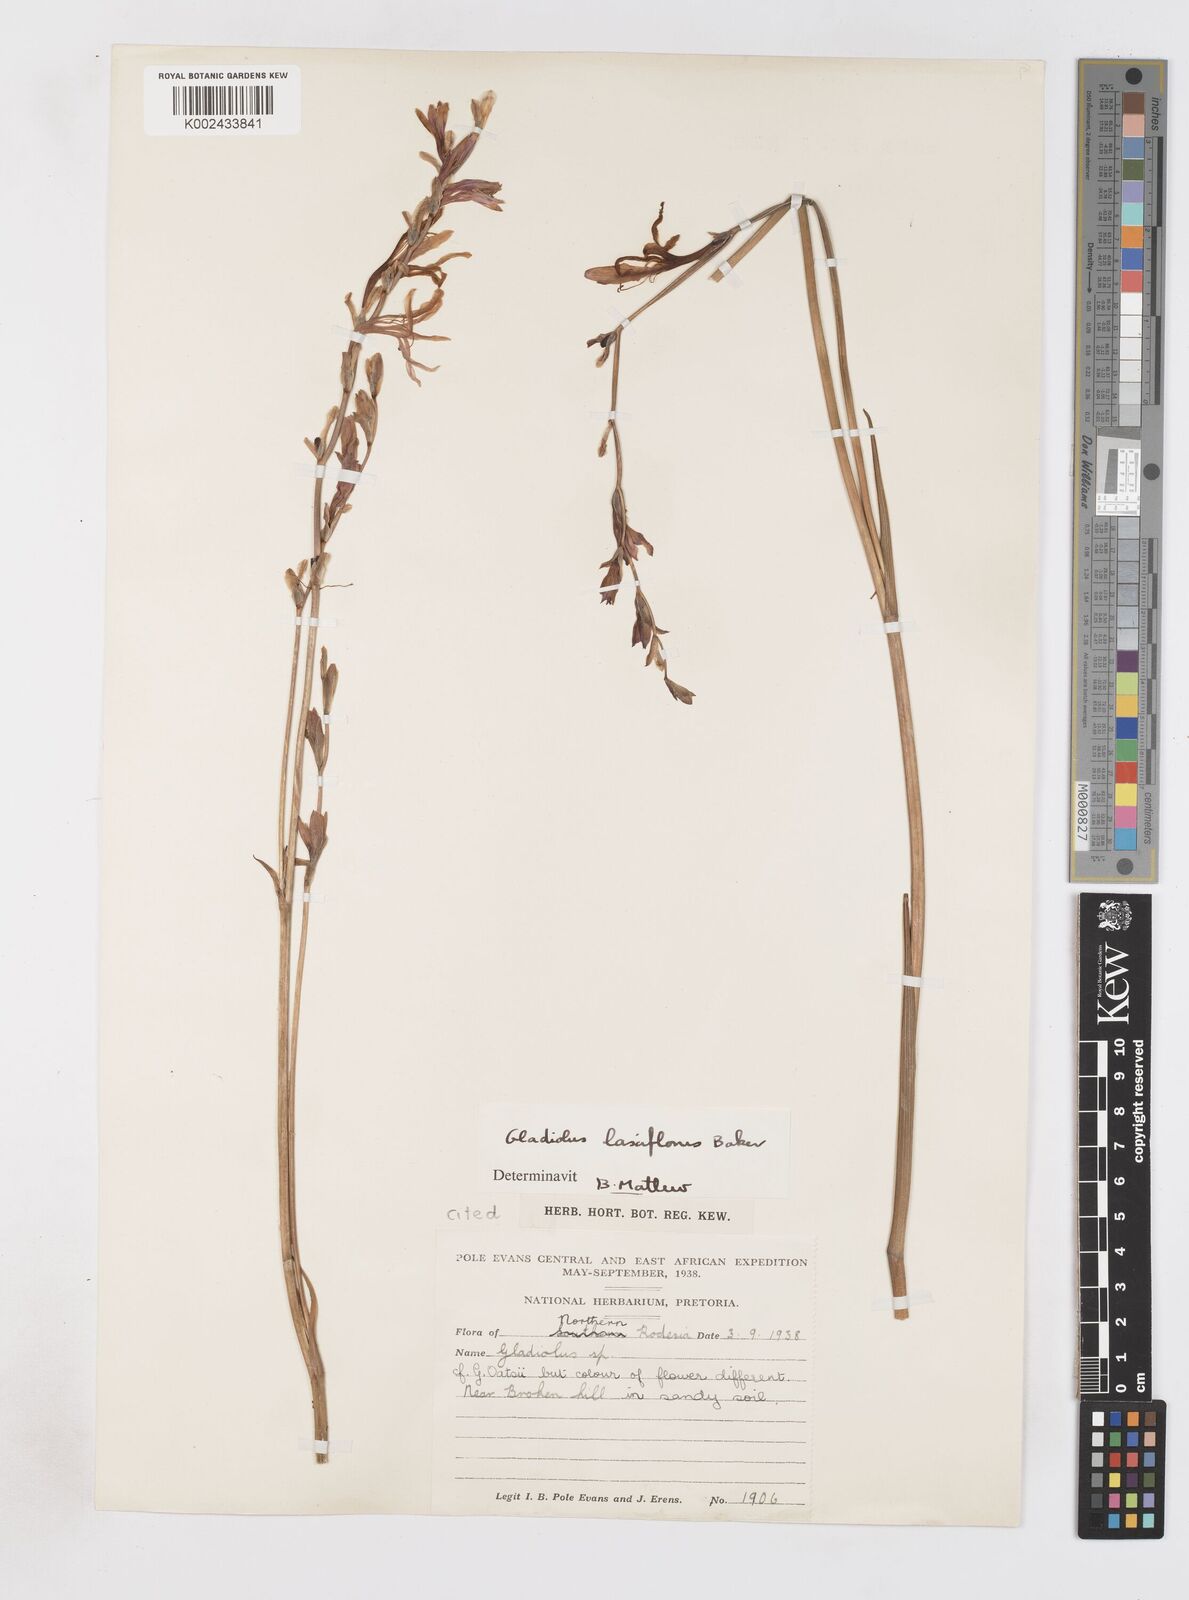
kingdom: Plantae
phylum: Tracheophyta
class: Liliopsida
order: Asparagales
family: Iridaceae
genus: Gladiolus
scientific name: Gladiolus laxiflorus
